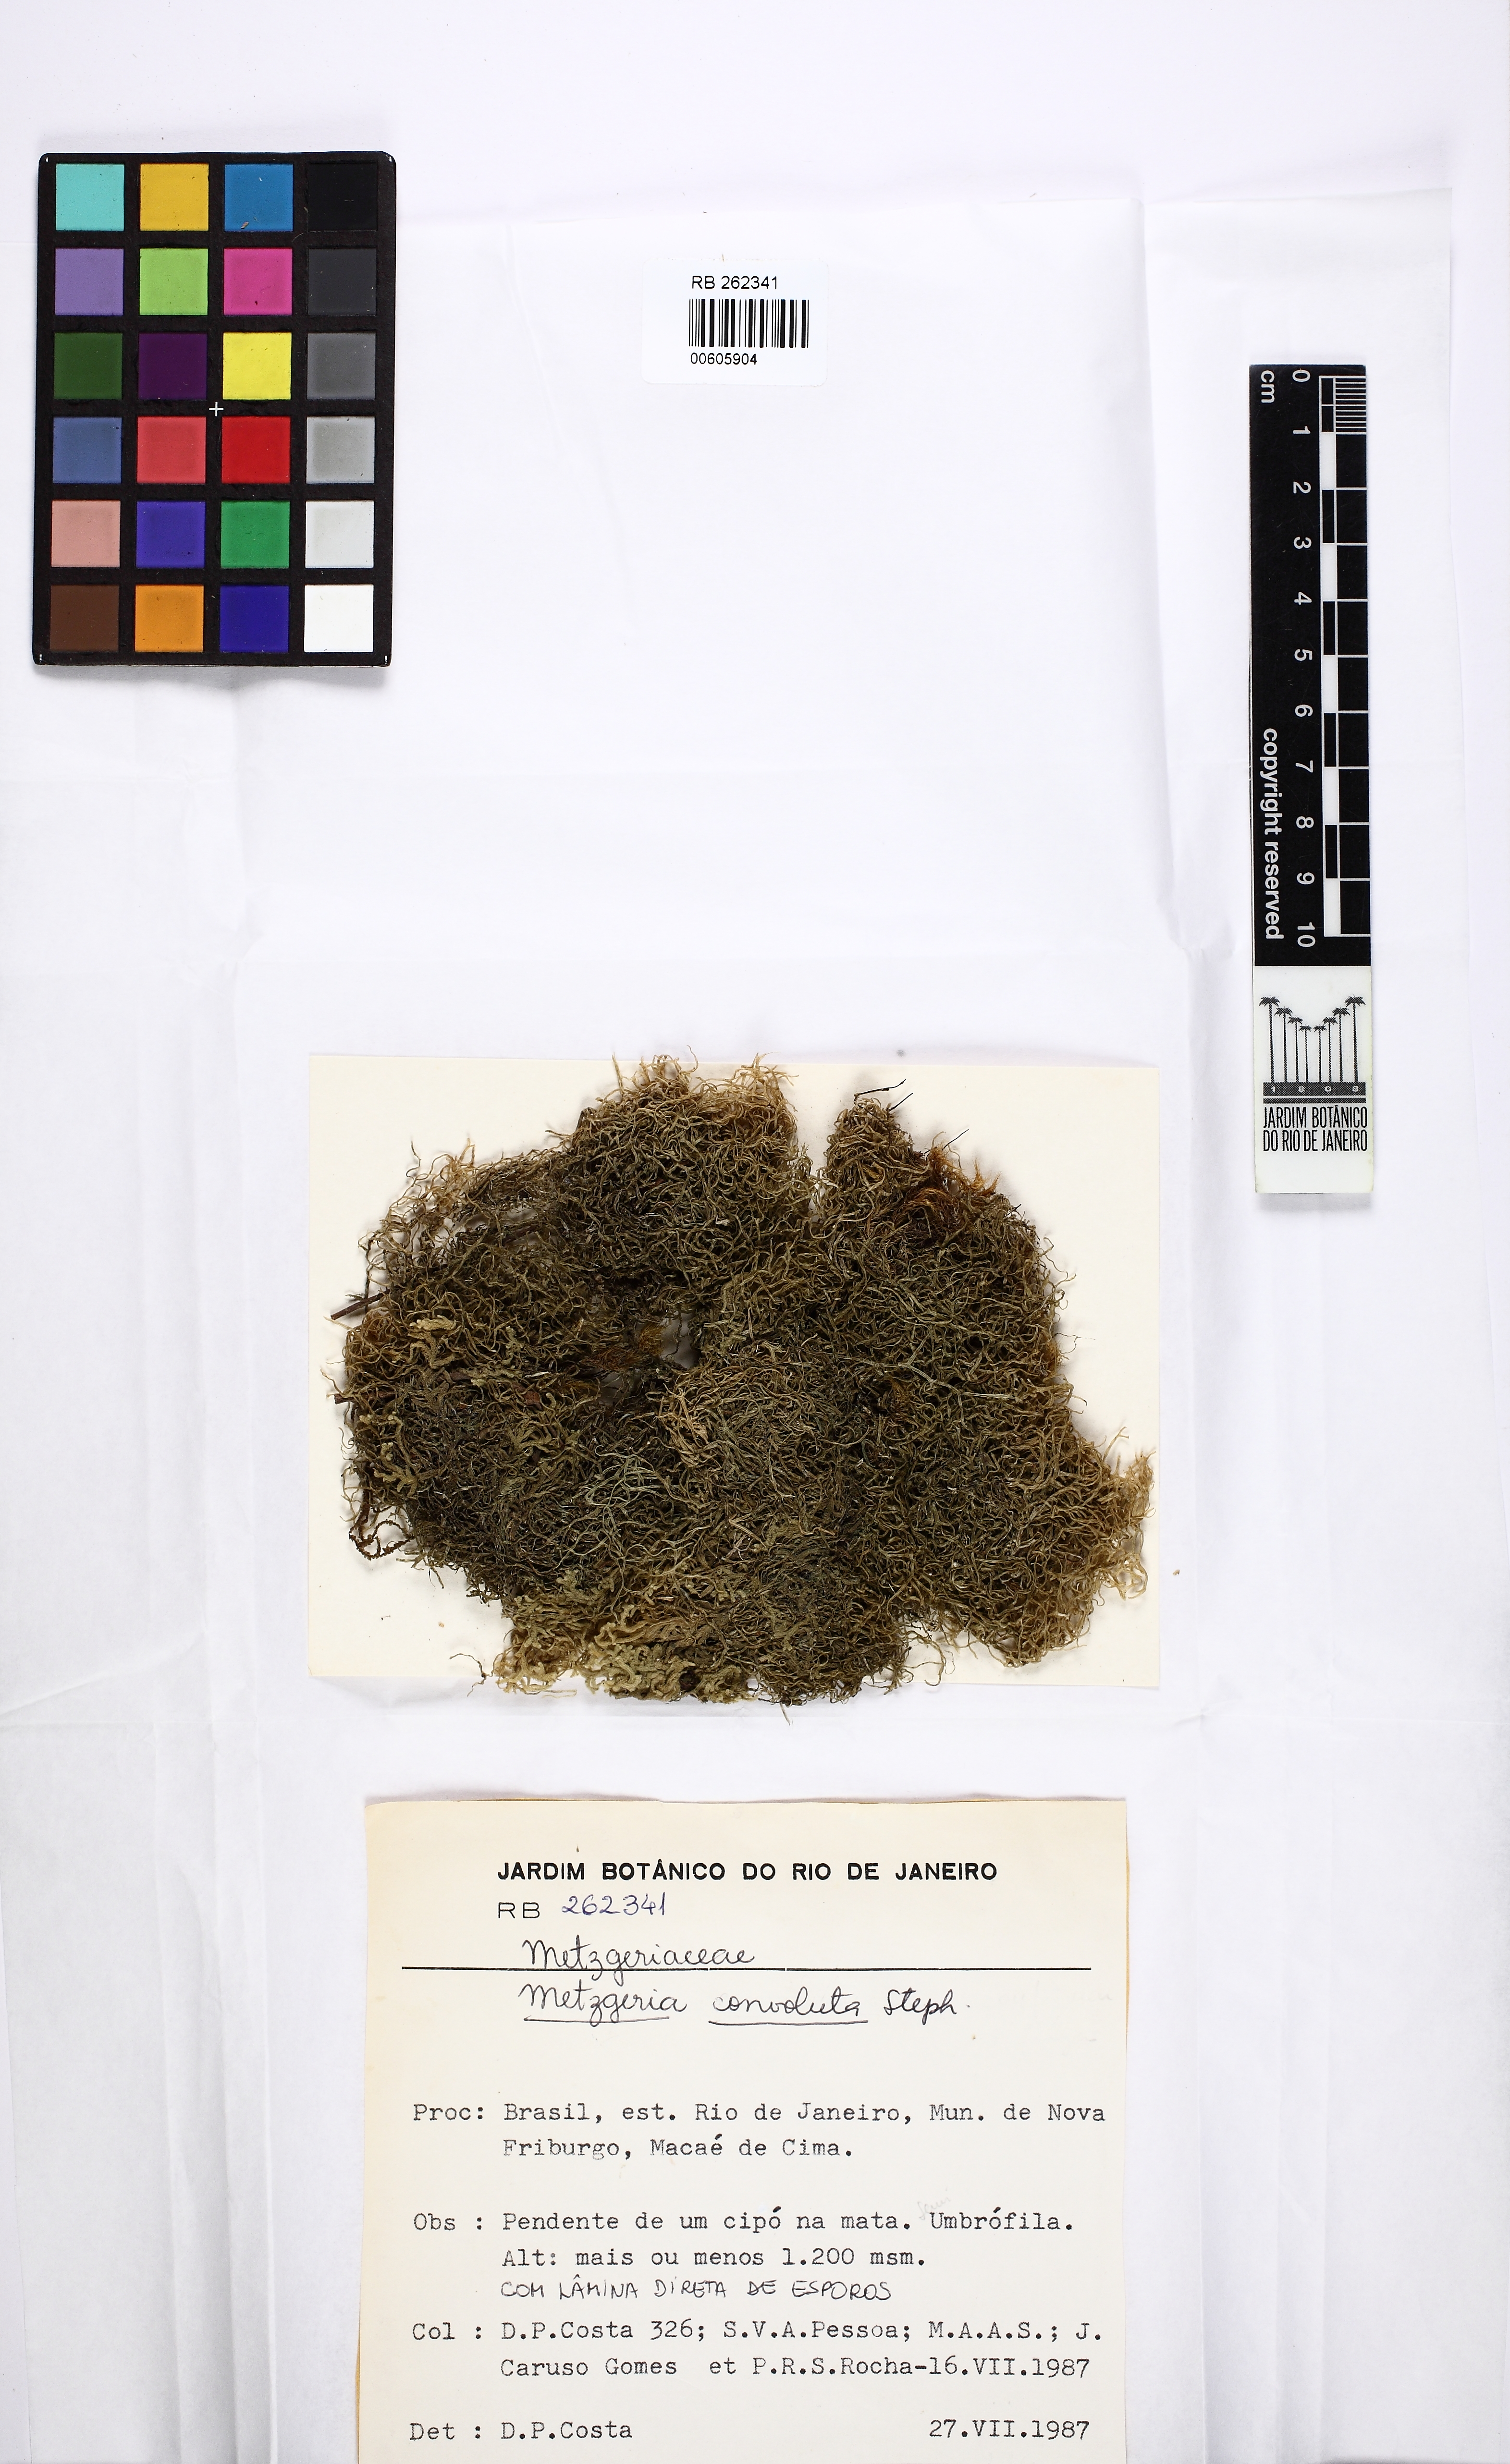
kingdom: Plantae
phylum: Marchantiophyta
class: Jungermanniopsida
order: Metzgeriales
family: Metzgeriaceae
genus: Metzgeria
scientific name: Metzgeria convoluta
